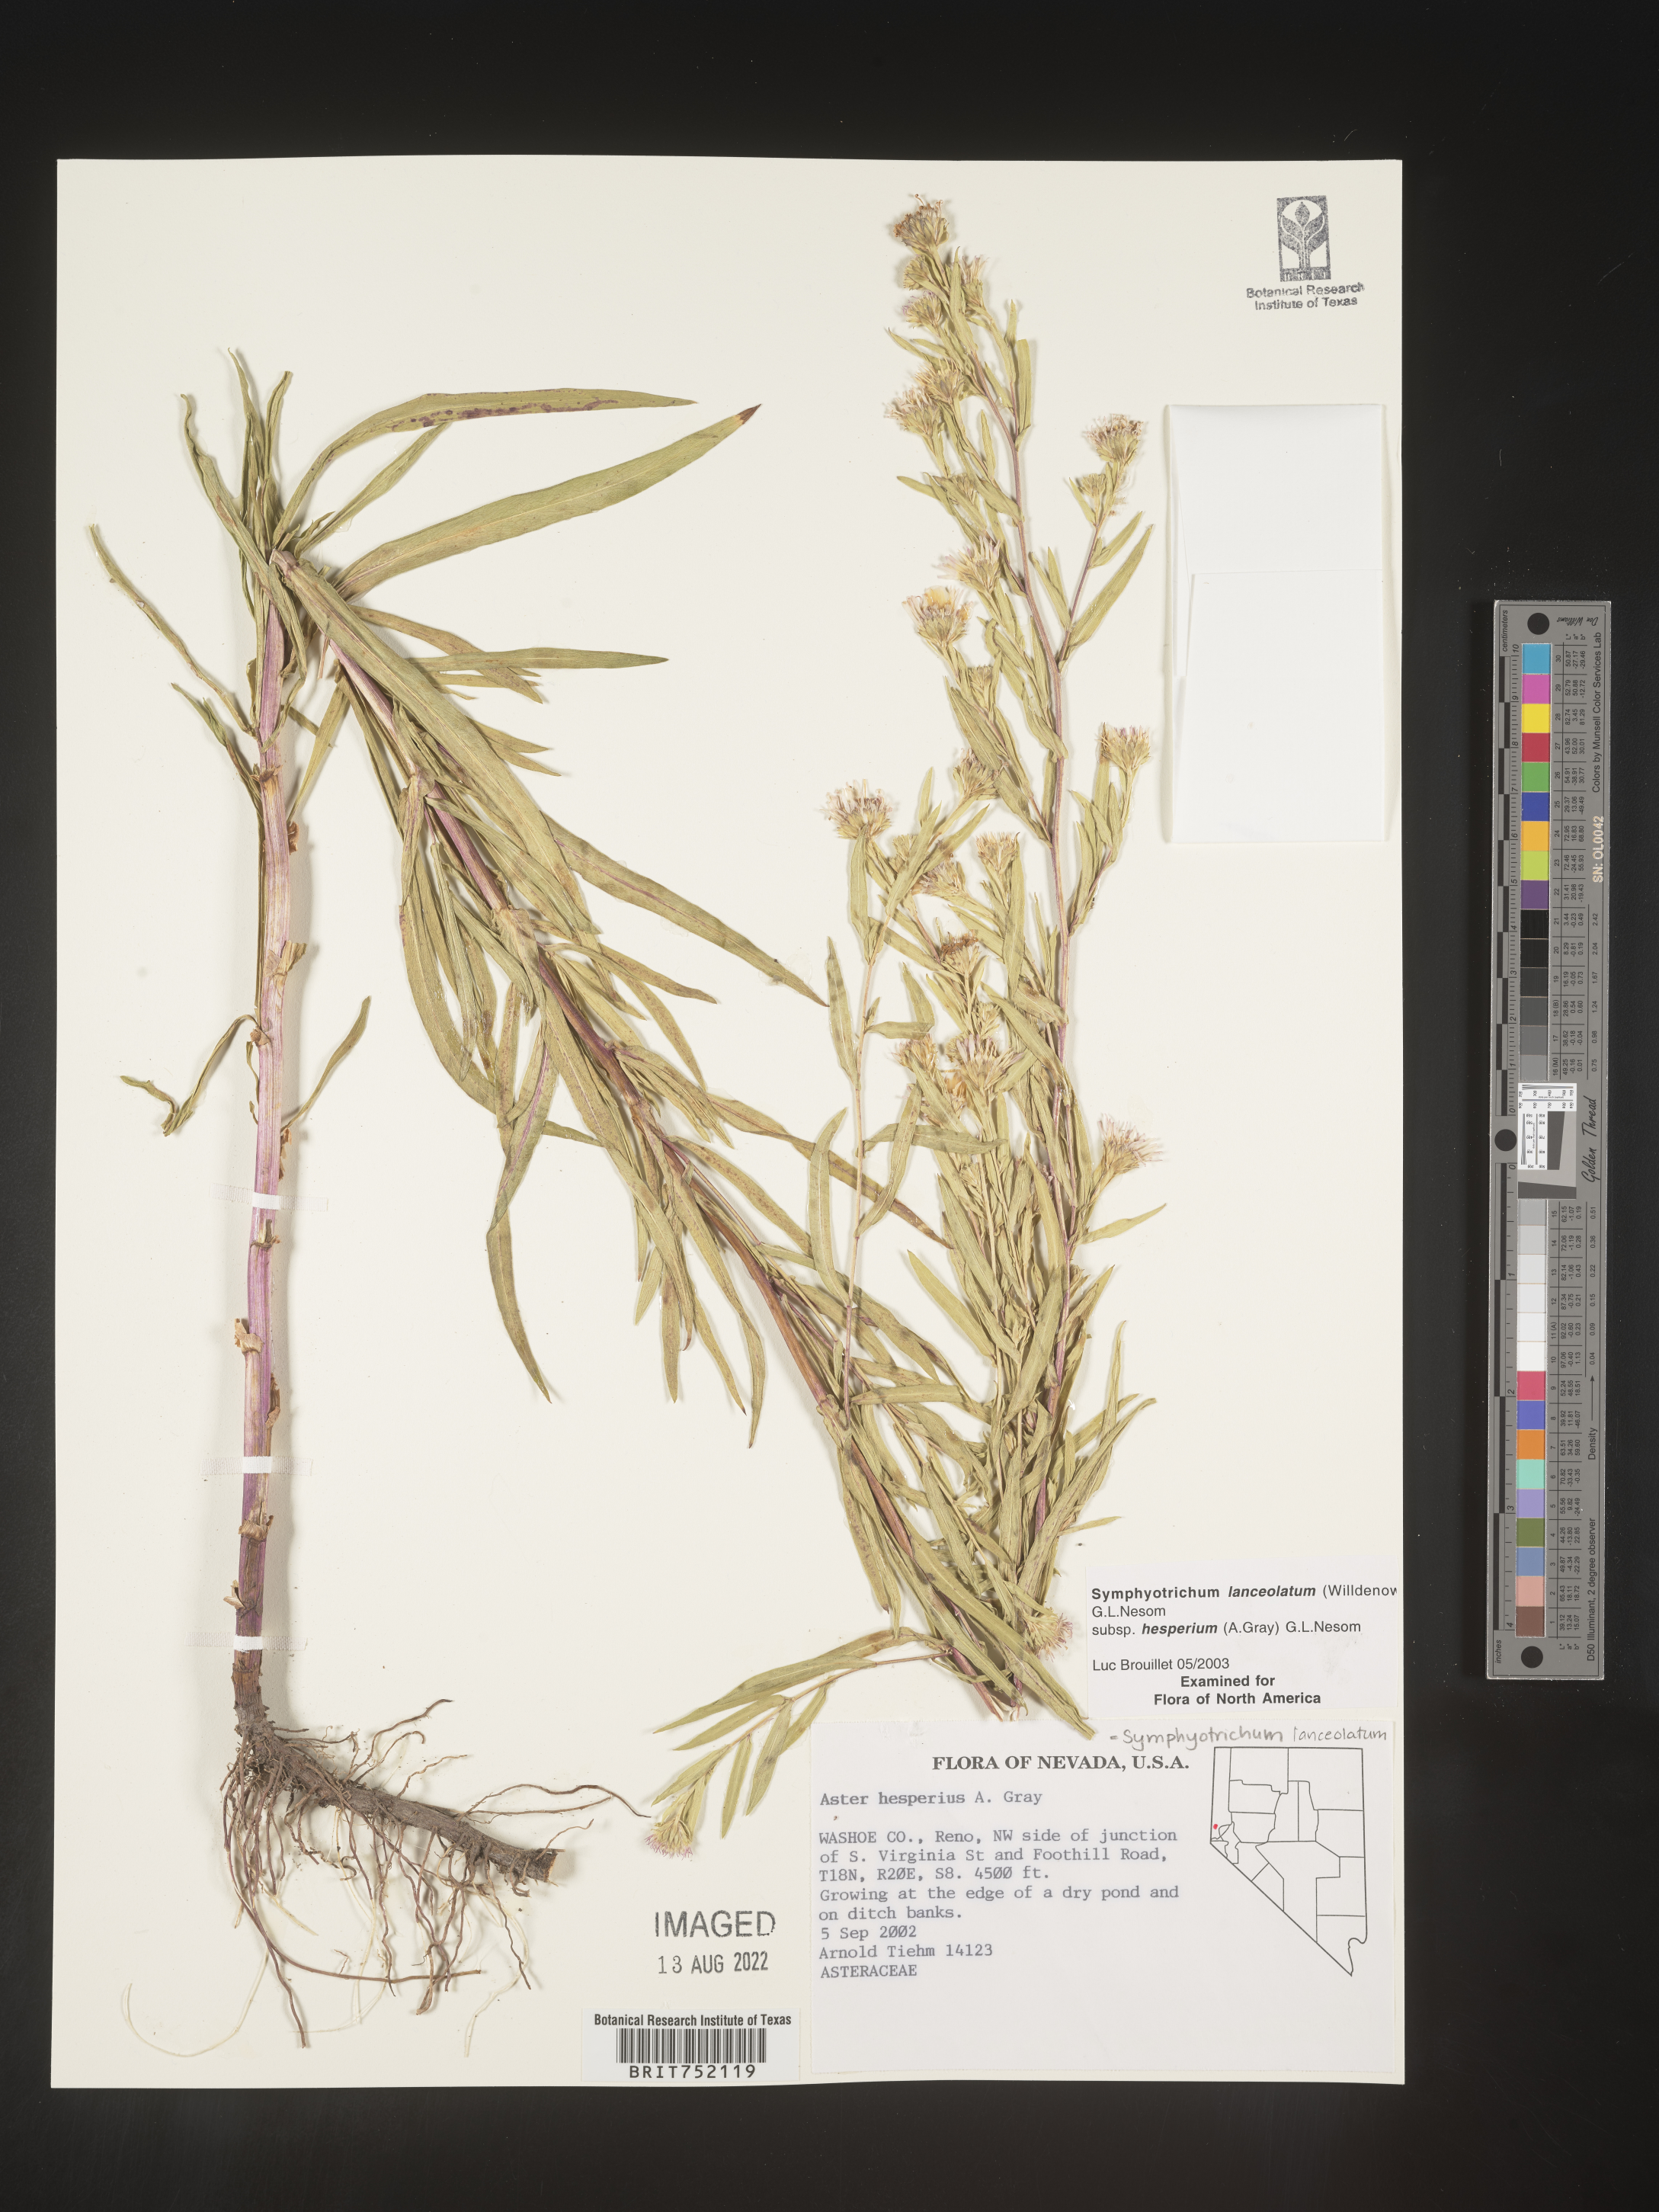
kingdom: Plantae
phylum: Tracheophyta
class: Magnoliopsida
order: Asterales
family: Asteraceae
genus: Symphyotrichum
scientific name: Symphyotrichum bracteolatum
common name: Eaton's aster
